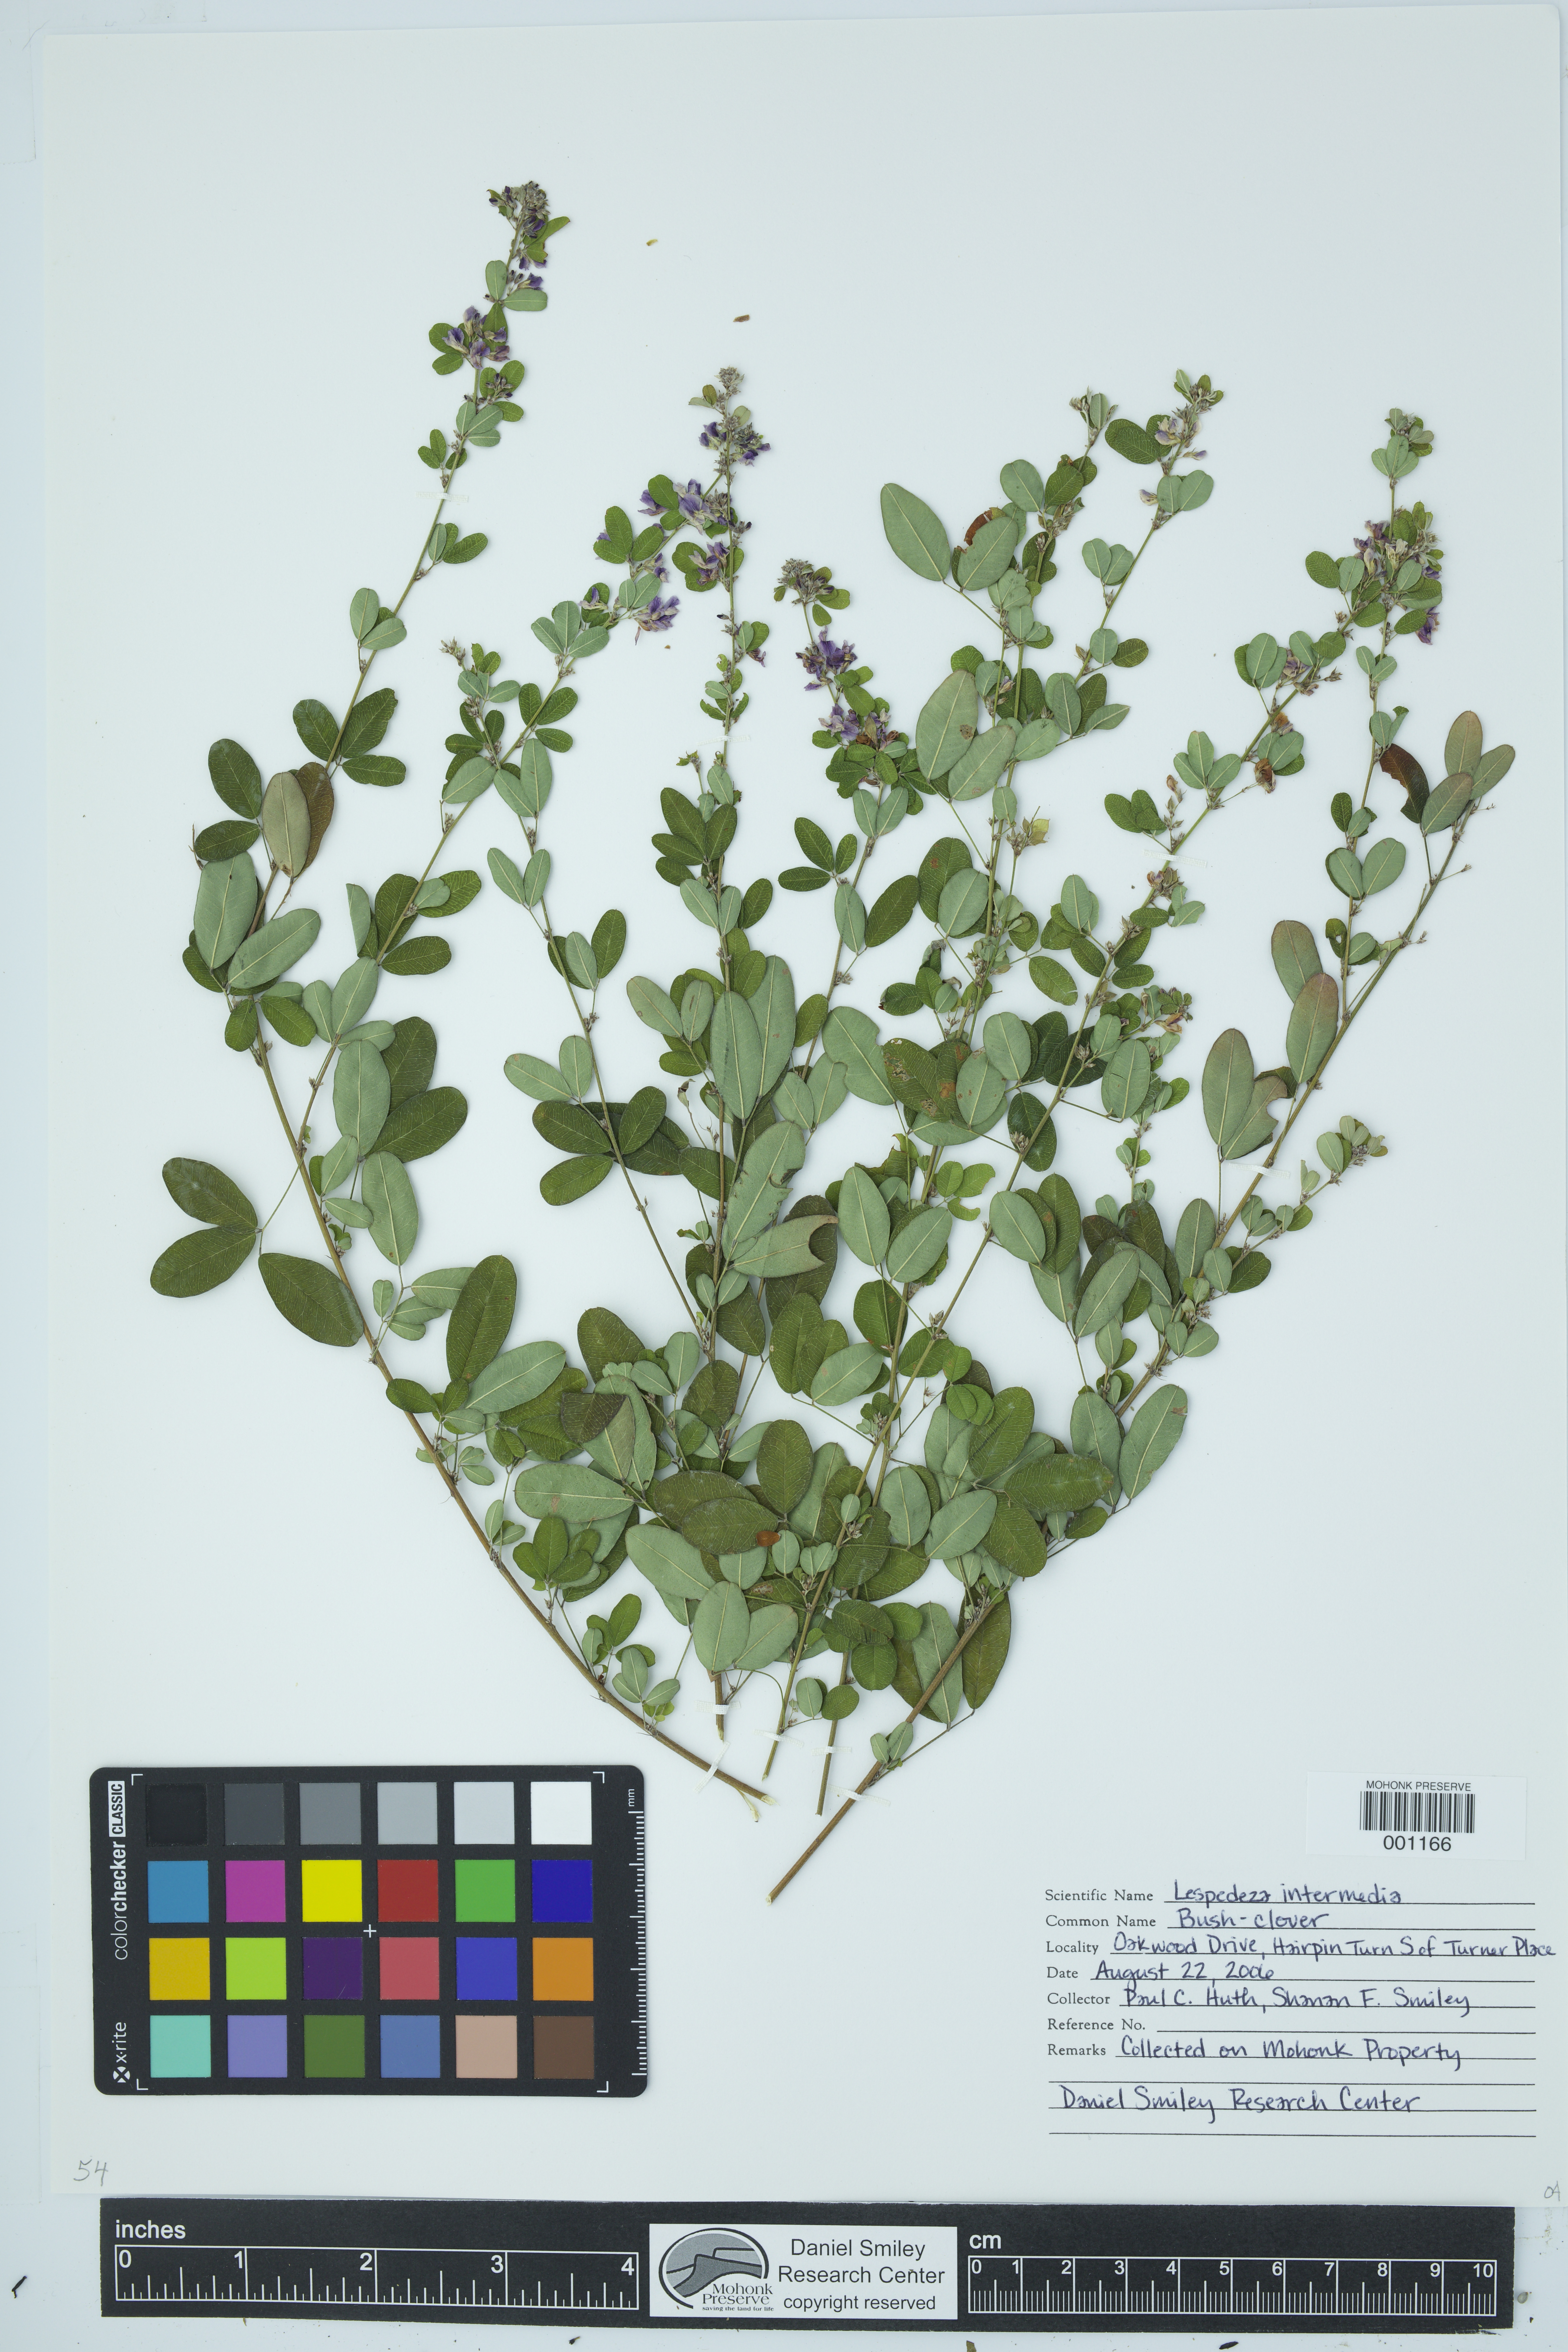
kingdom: Plantae
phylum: Tracheophyta
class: Magnoliopsida
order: Fabales
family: Fabaceae
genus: Lespedeza
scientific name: Lespedeza
